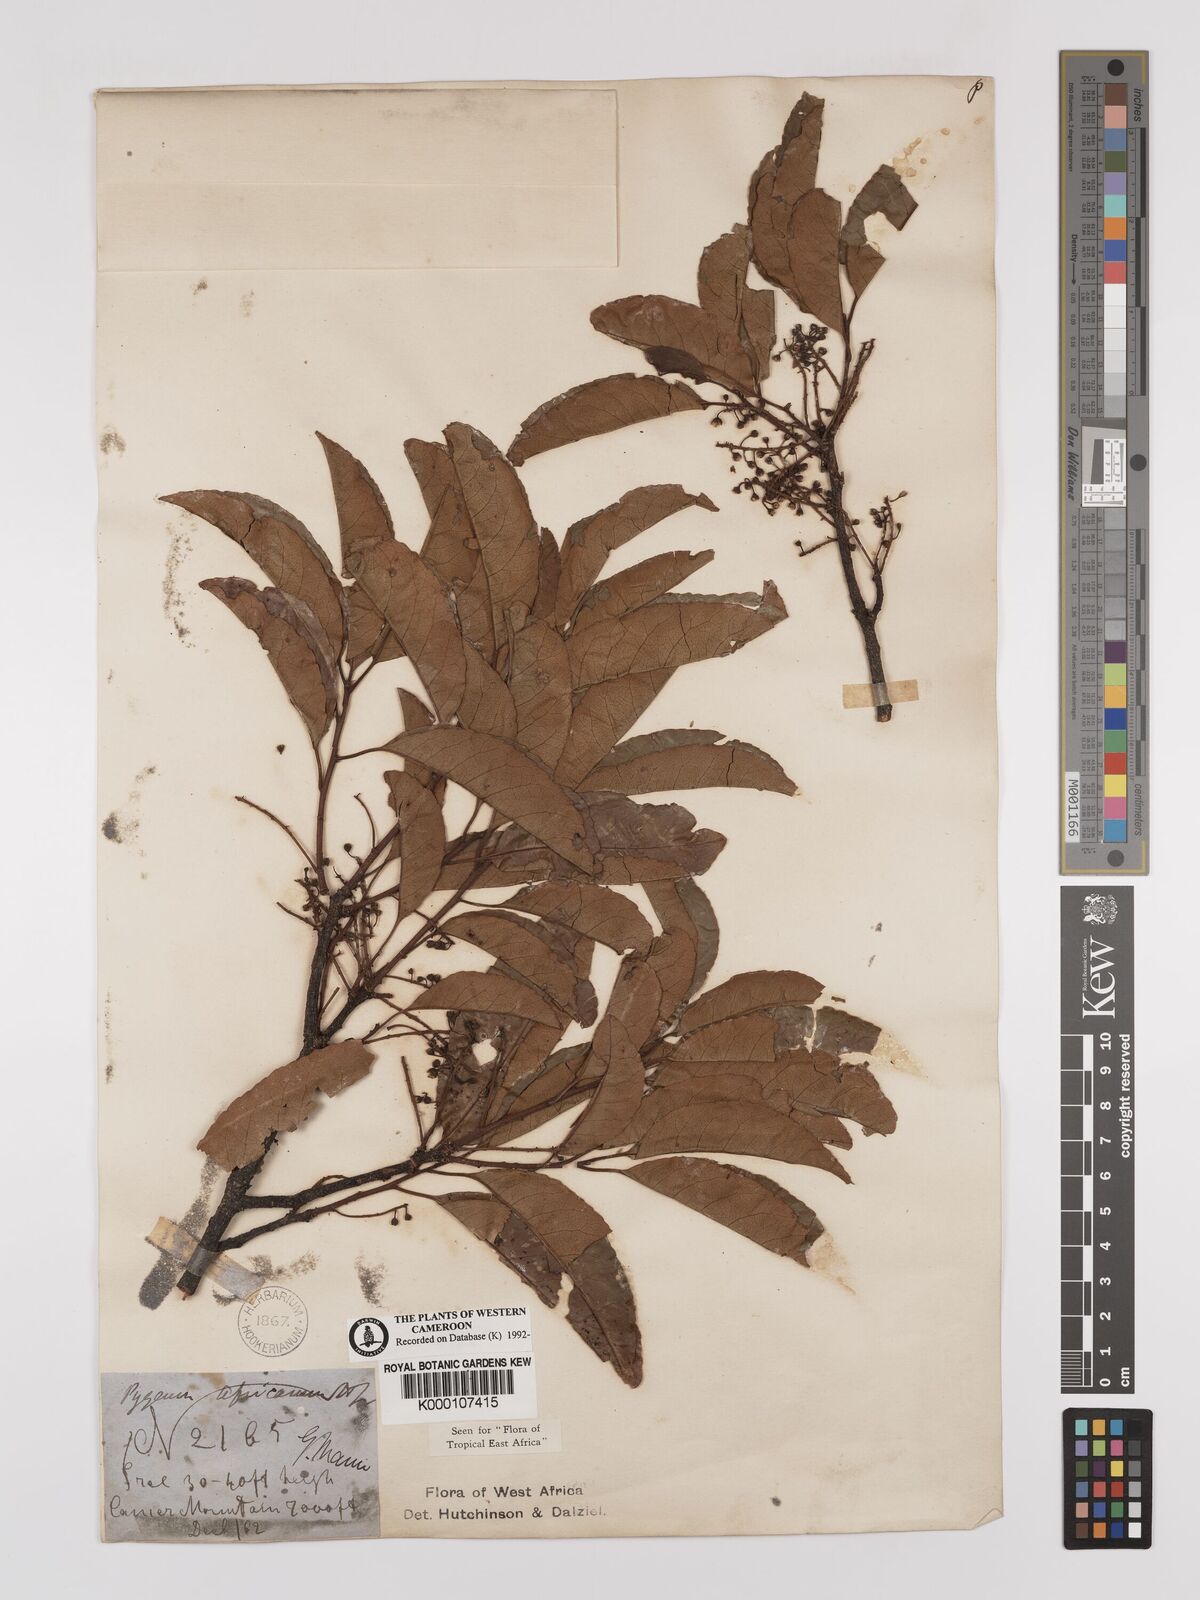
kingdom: Plantae
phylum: Tracheophyta
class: Magnoliopsida
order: Rosales
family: Rosaceae
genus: Prunus
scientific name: Prunus africana
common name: African cherry
